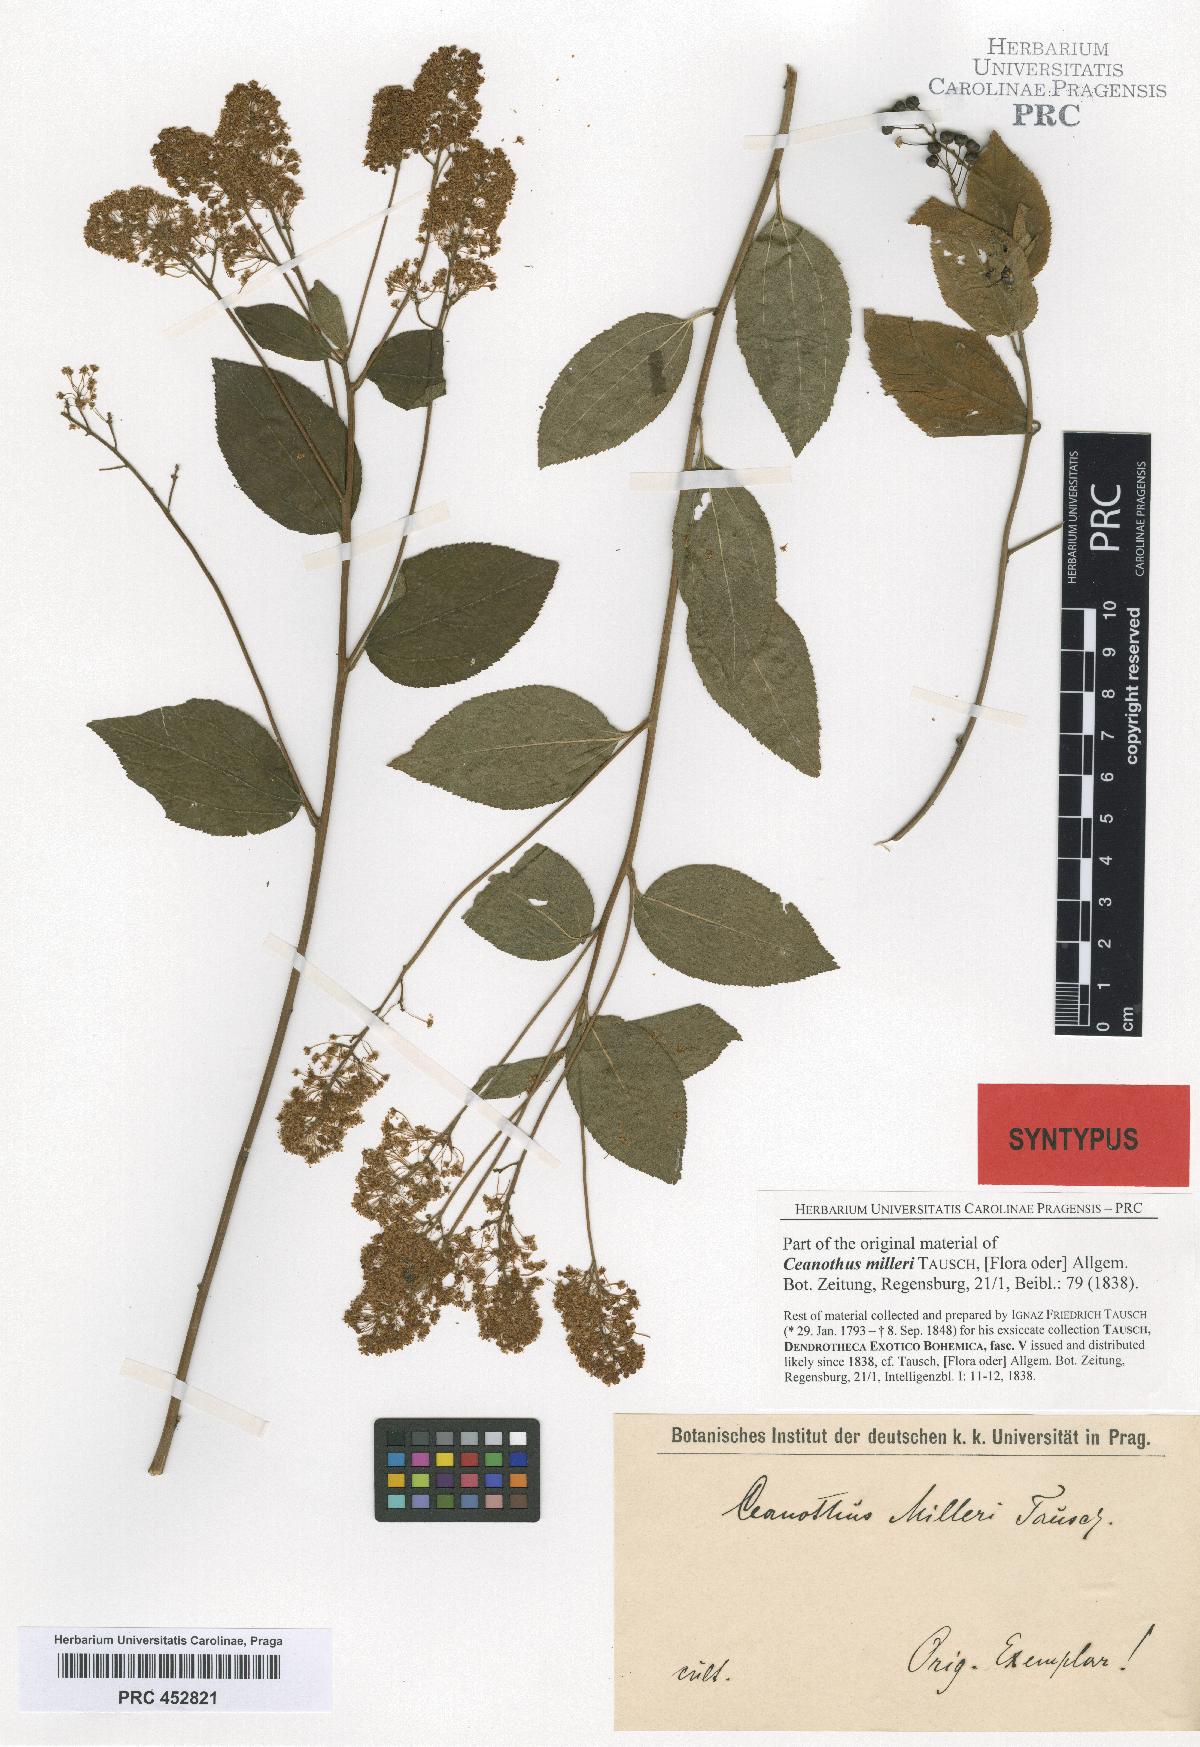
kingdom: Plantae
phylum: Tracheophyta
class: Magnoliopsida
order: Rosales
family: Rhamnaceae
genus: Ceanothus
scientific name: Ceanothus americanus
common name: Redroot
